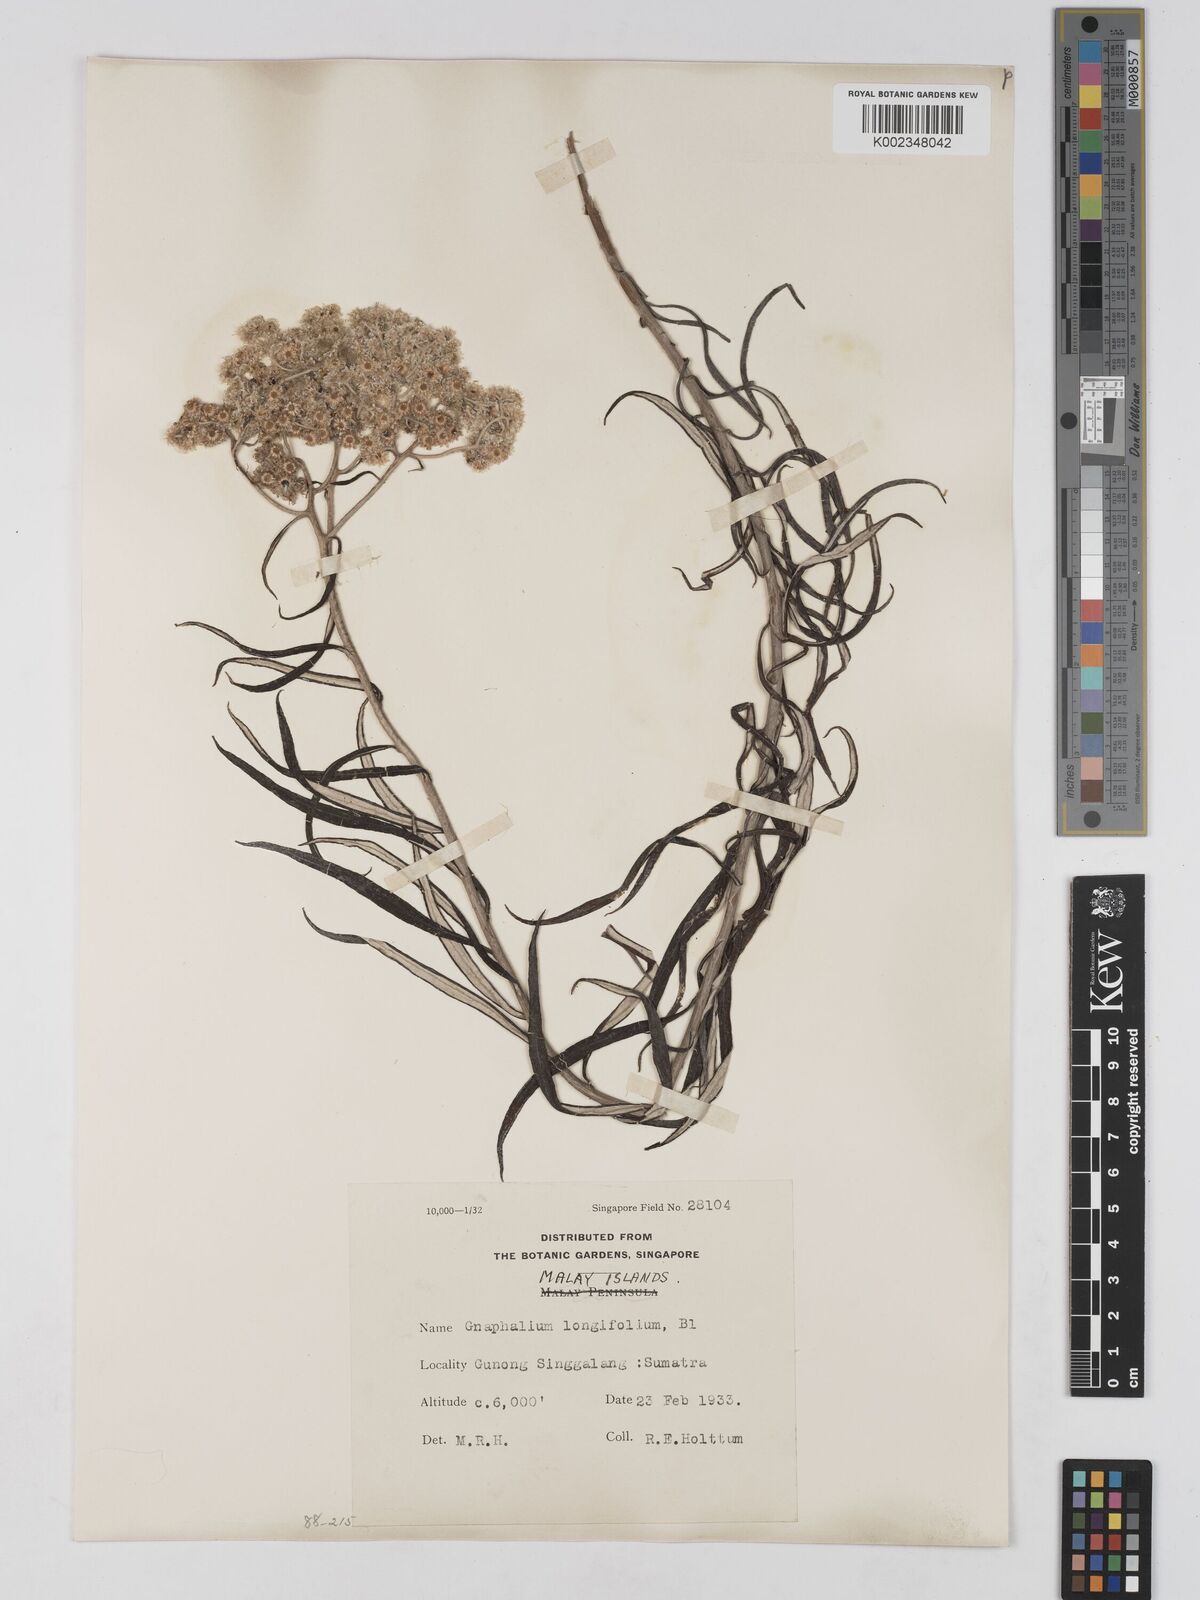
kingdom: Plantae
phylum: Tracheophyta
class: Magnoliopsida
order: Asterales
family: Asteraceae
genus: Anaphalis
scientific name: Anaphalis longifolia
